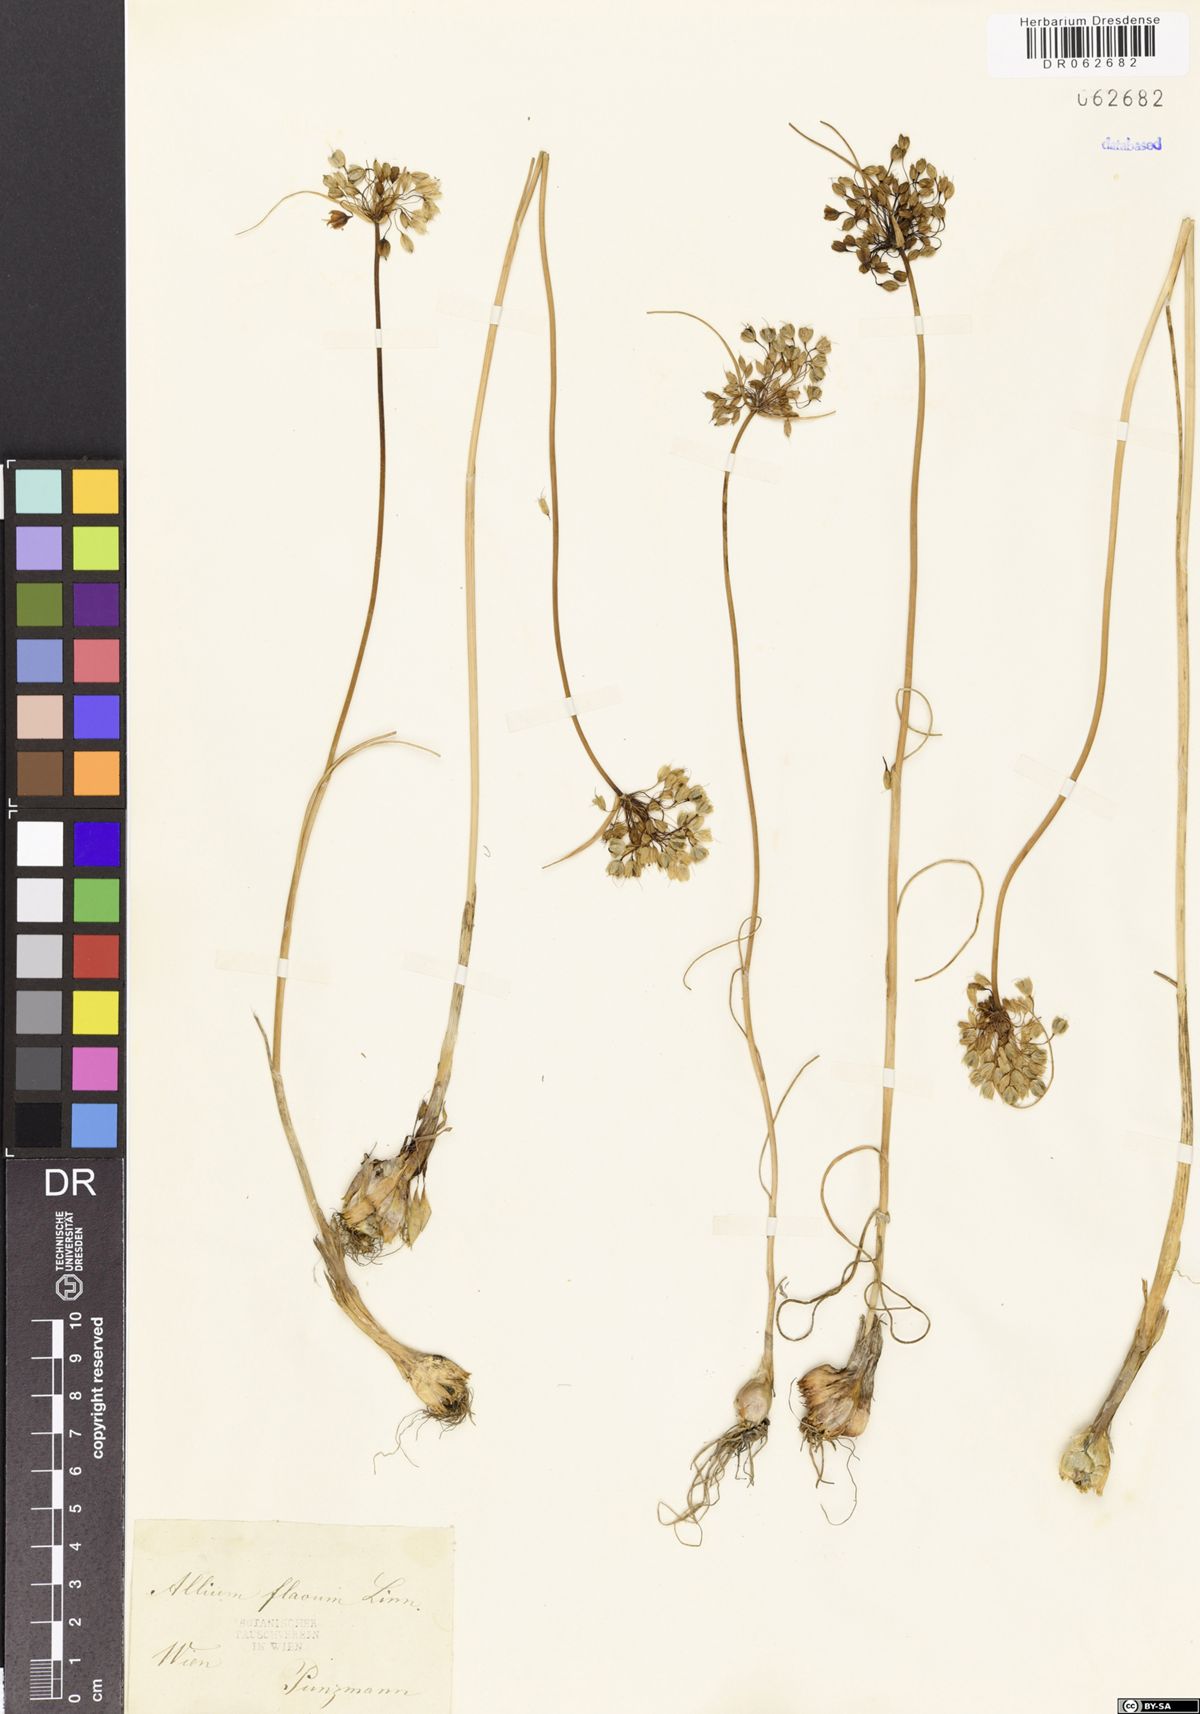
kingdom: Plantae
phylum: Tracheophyta
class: Liliopsida
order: Asparagales
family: Amaryllidaceae
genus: Allium
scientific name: Allium flavum
